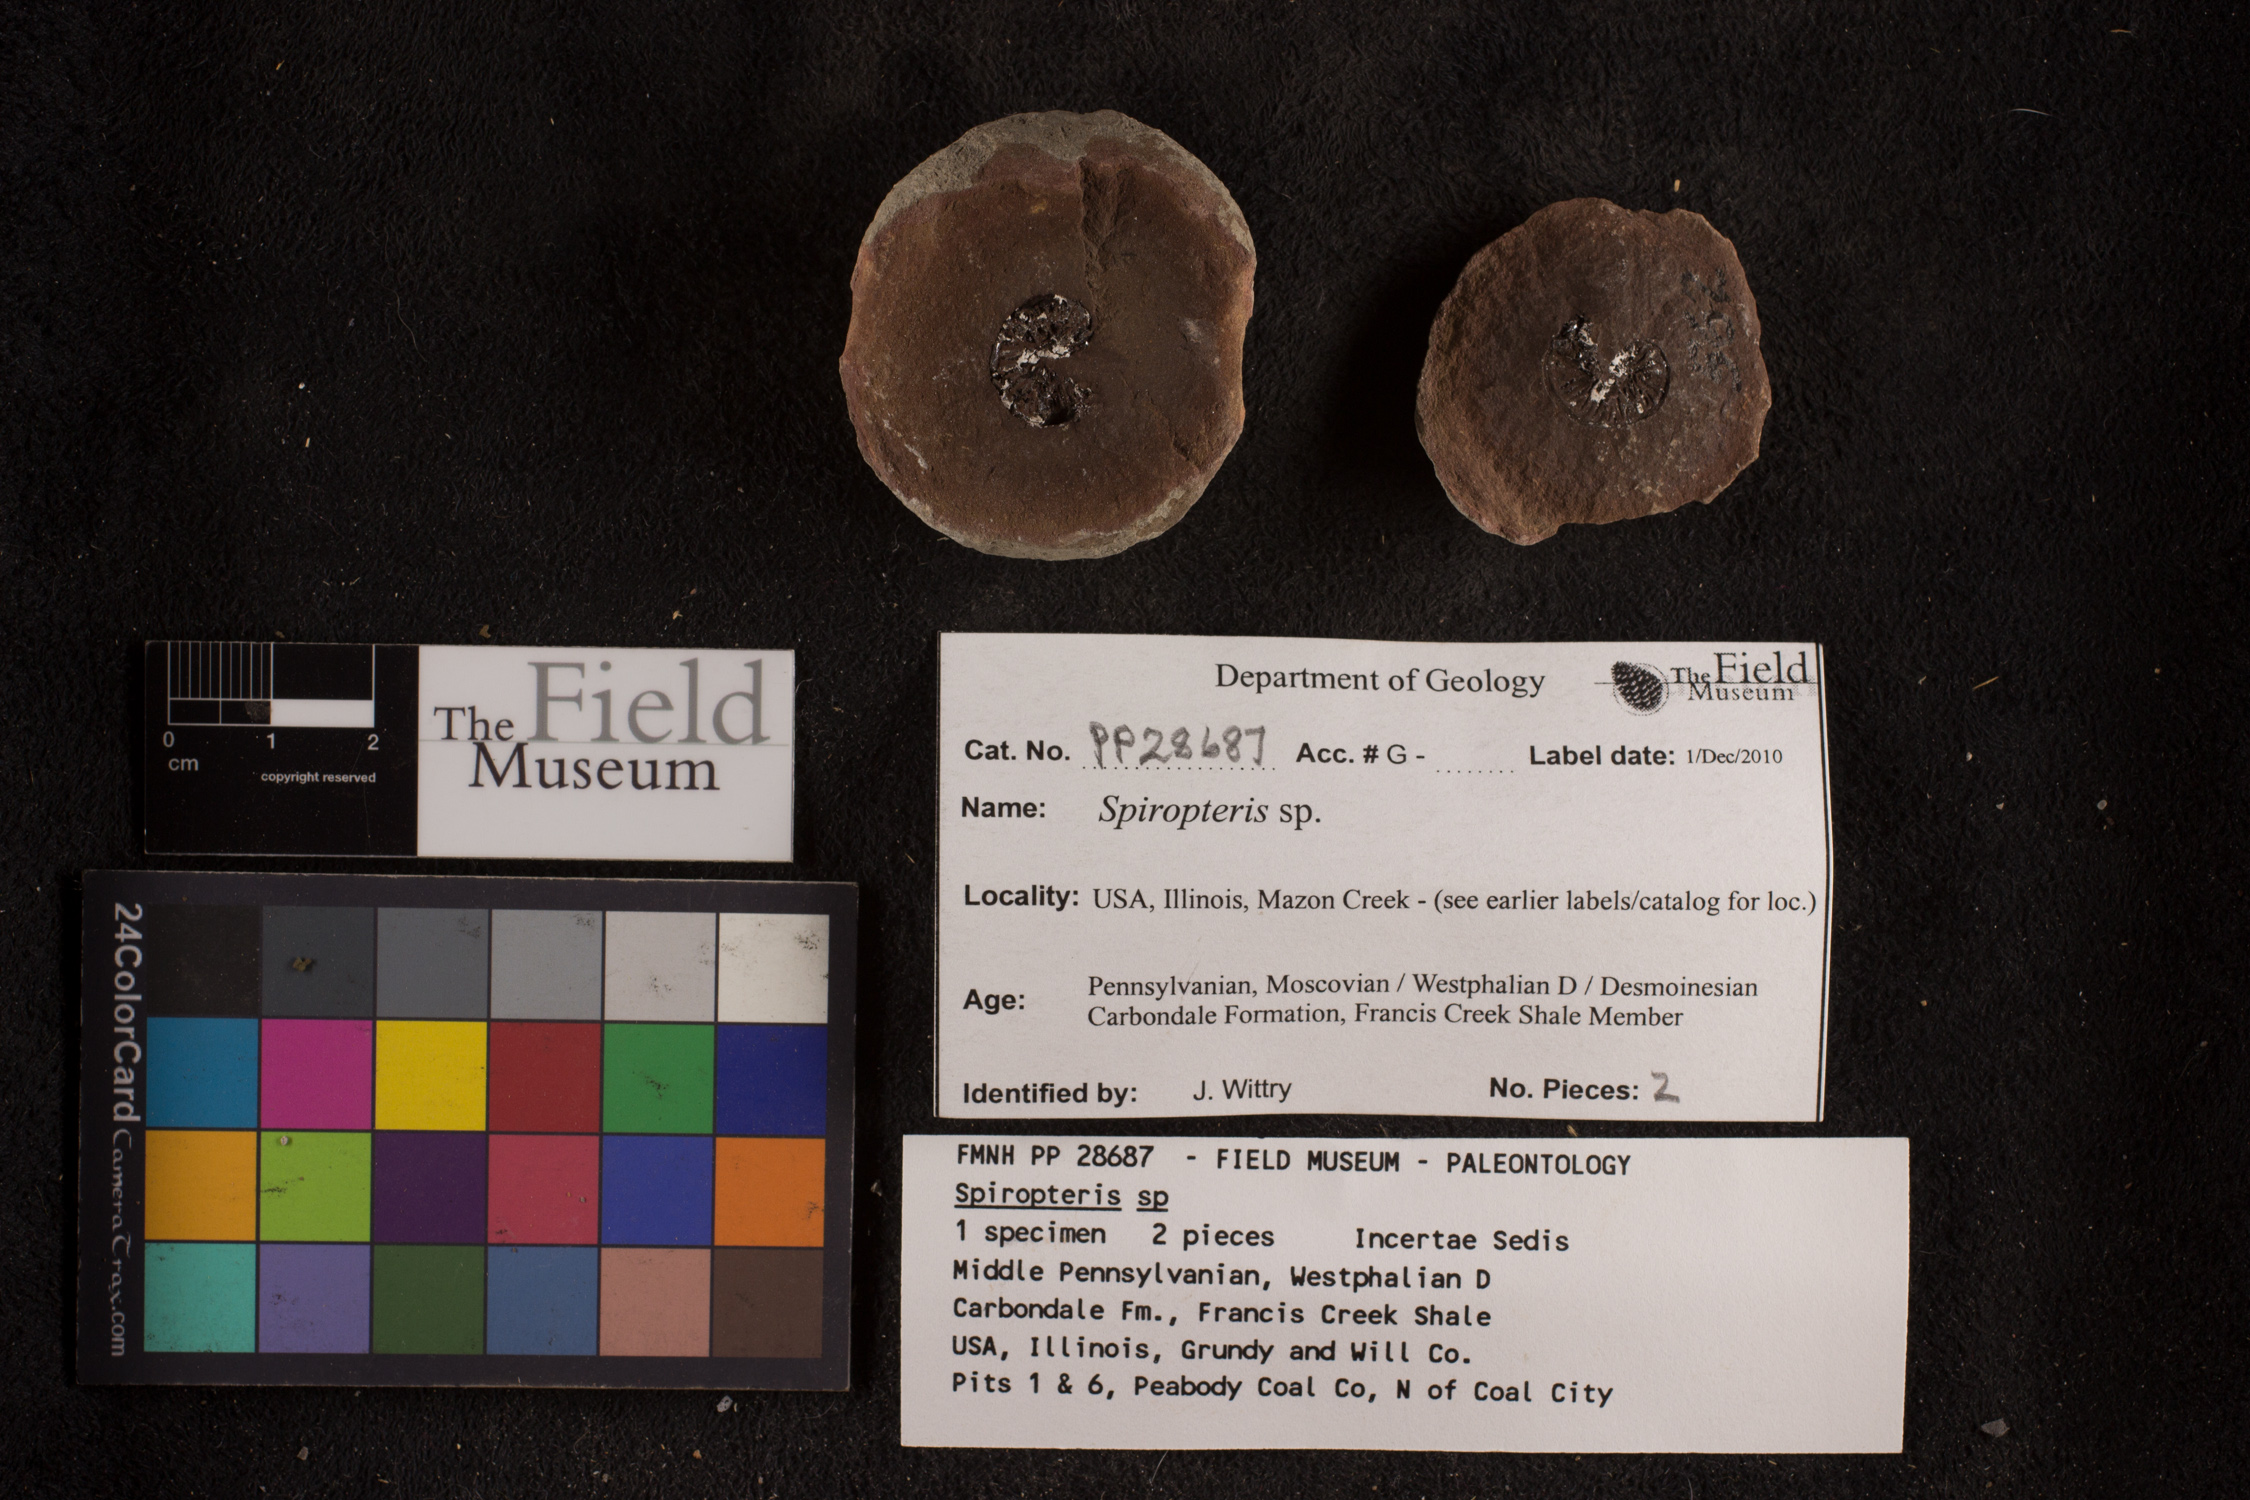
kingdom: Plantae
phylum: Tracheophyta
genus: Spiropteris
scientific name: Spiropteris
